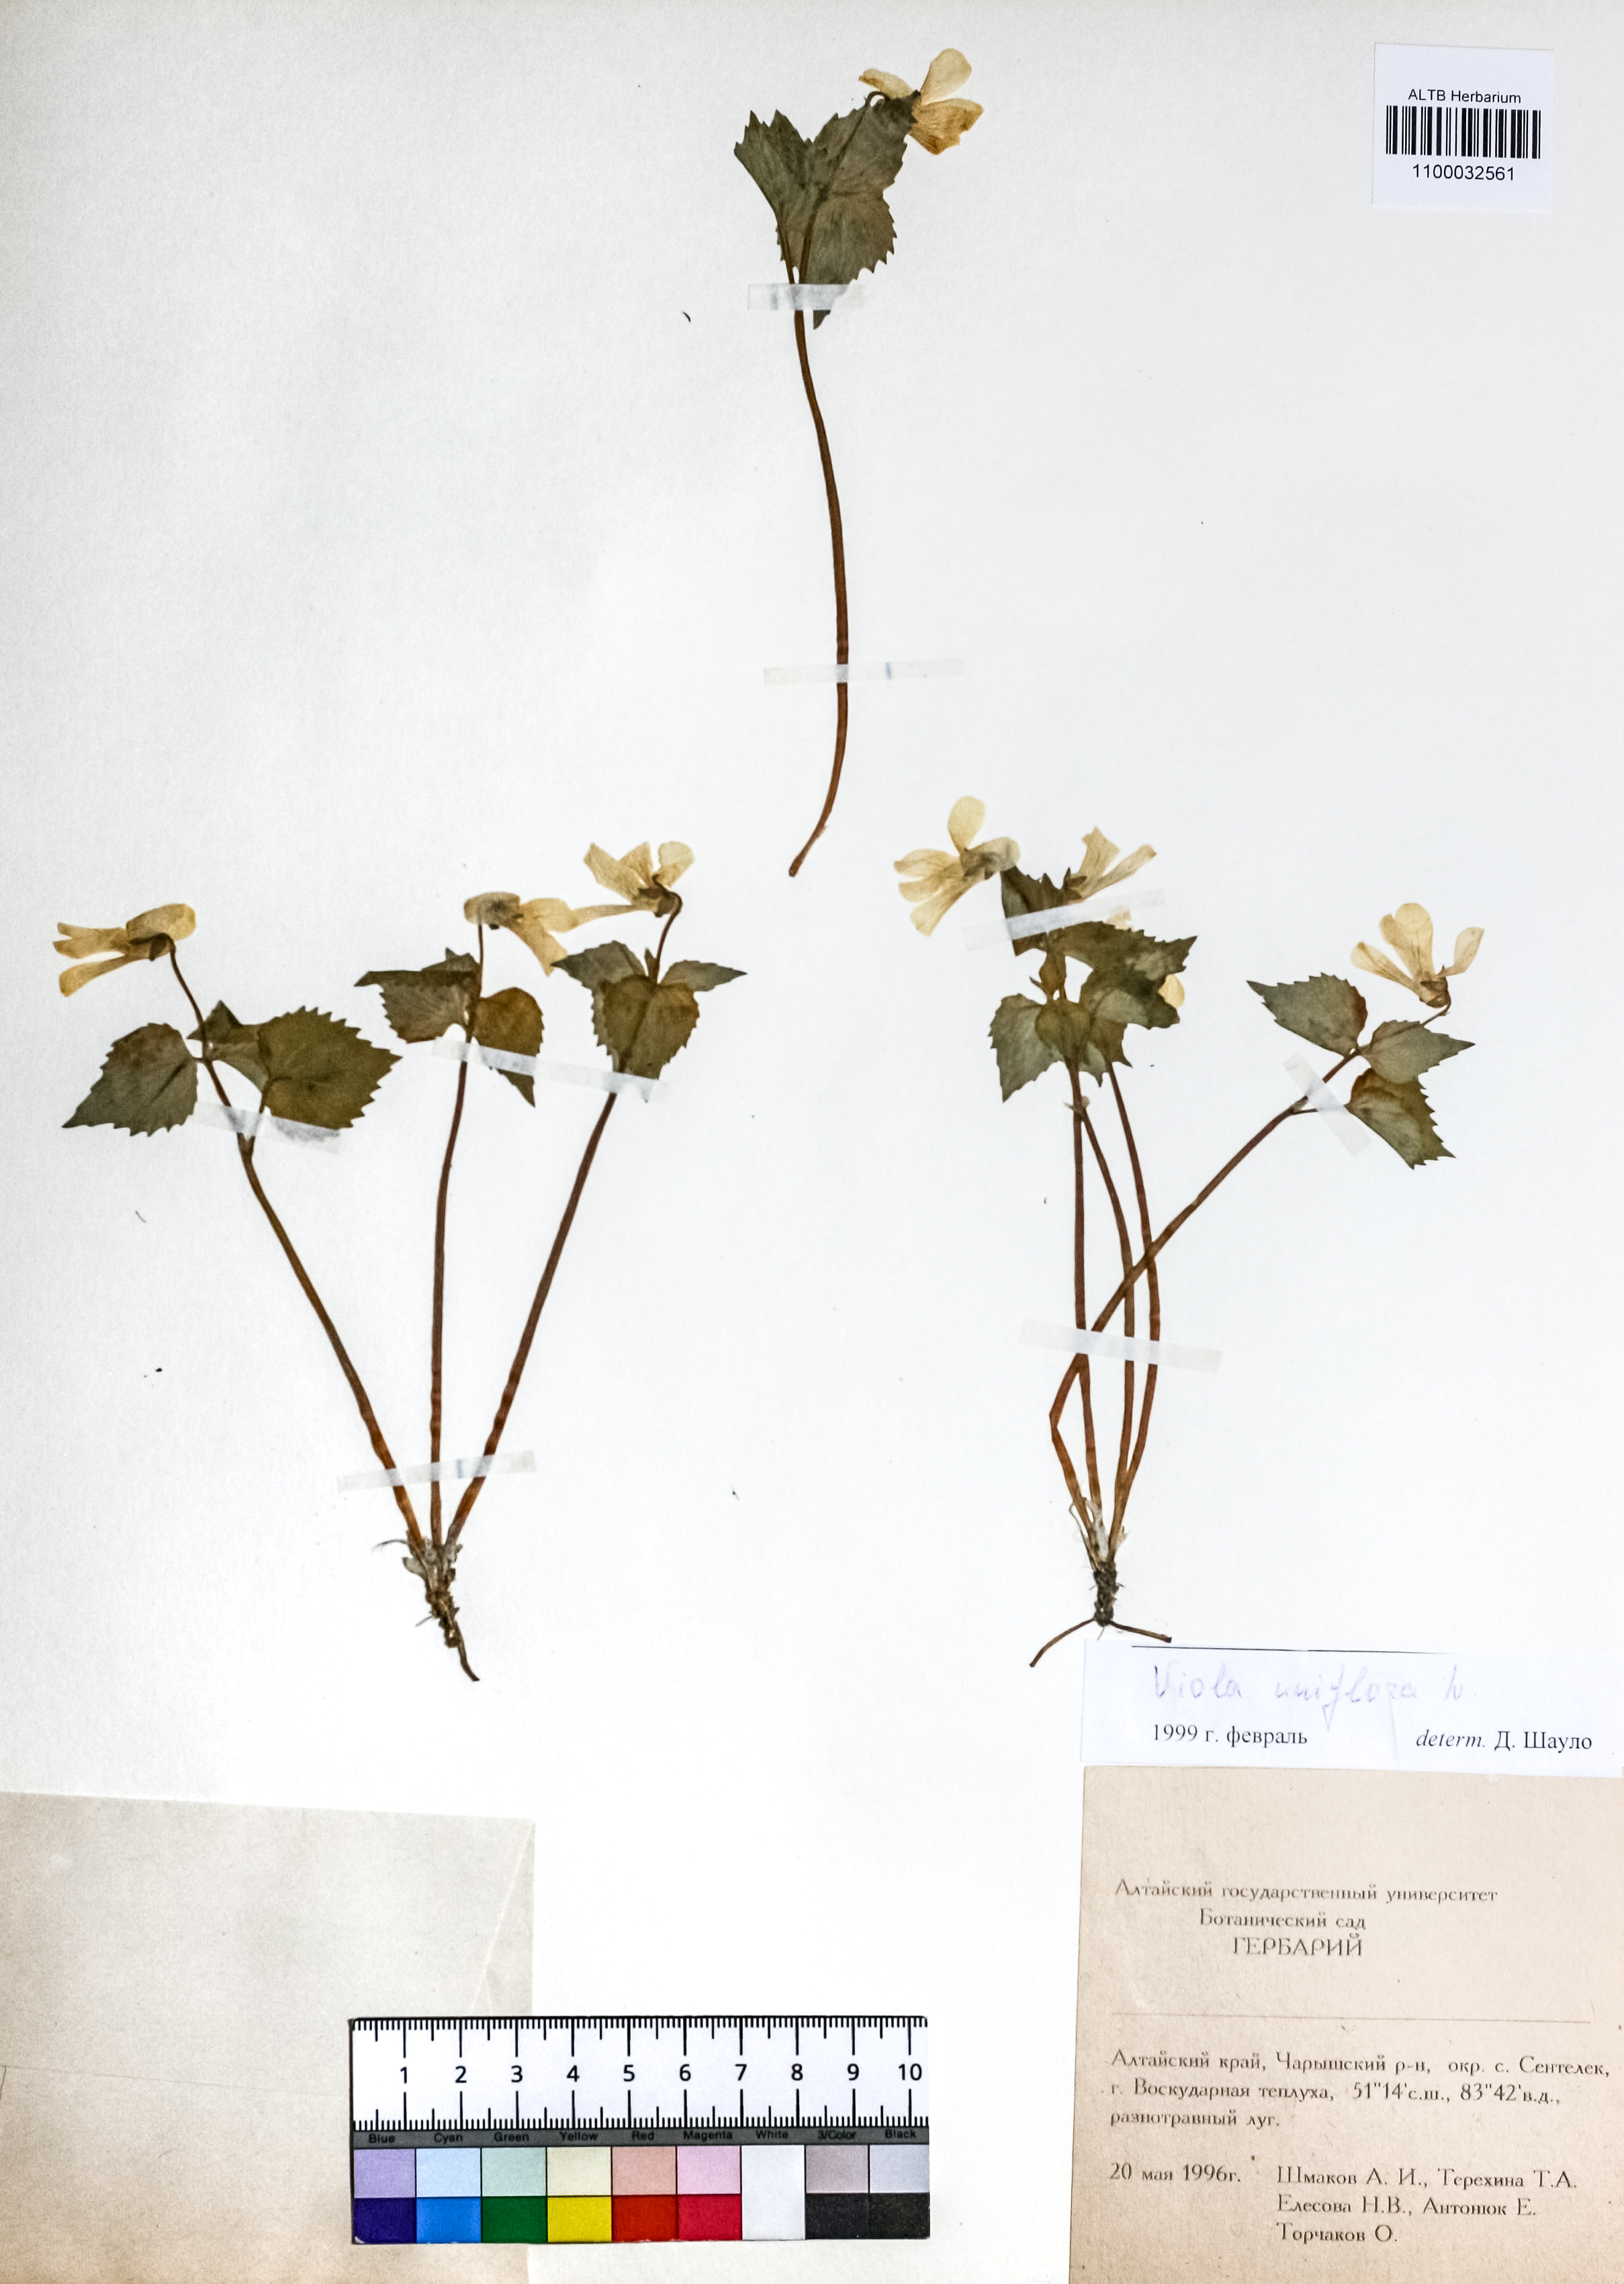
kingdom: Plantae
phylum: Tracheophyta
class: Magnoliopsida
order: Malpighiales
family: Violaceae
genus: Viola
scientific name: Viola uniflora
